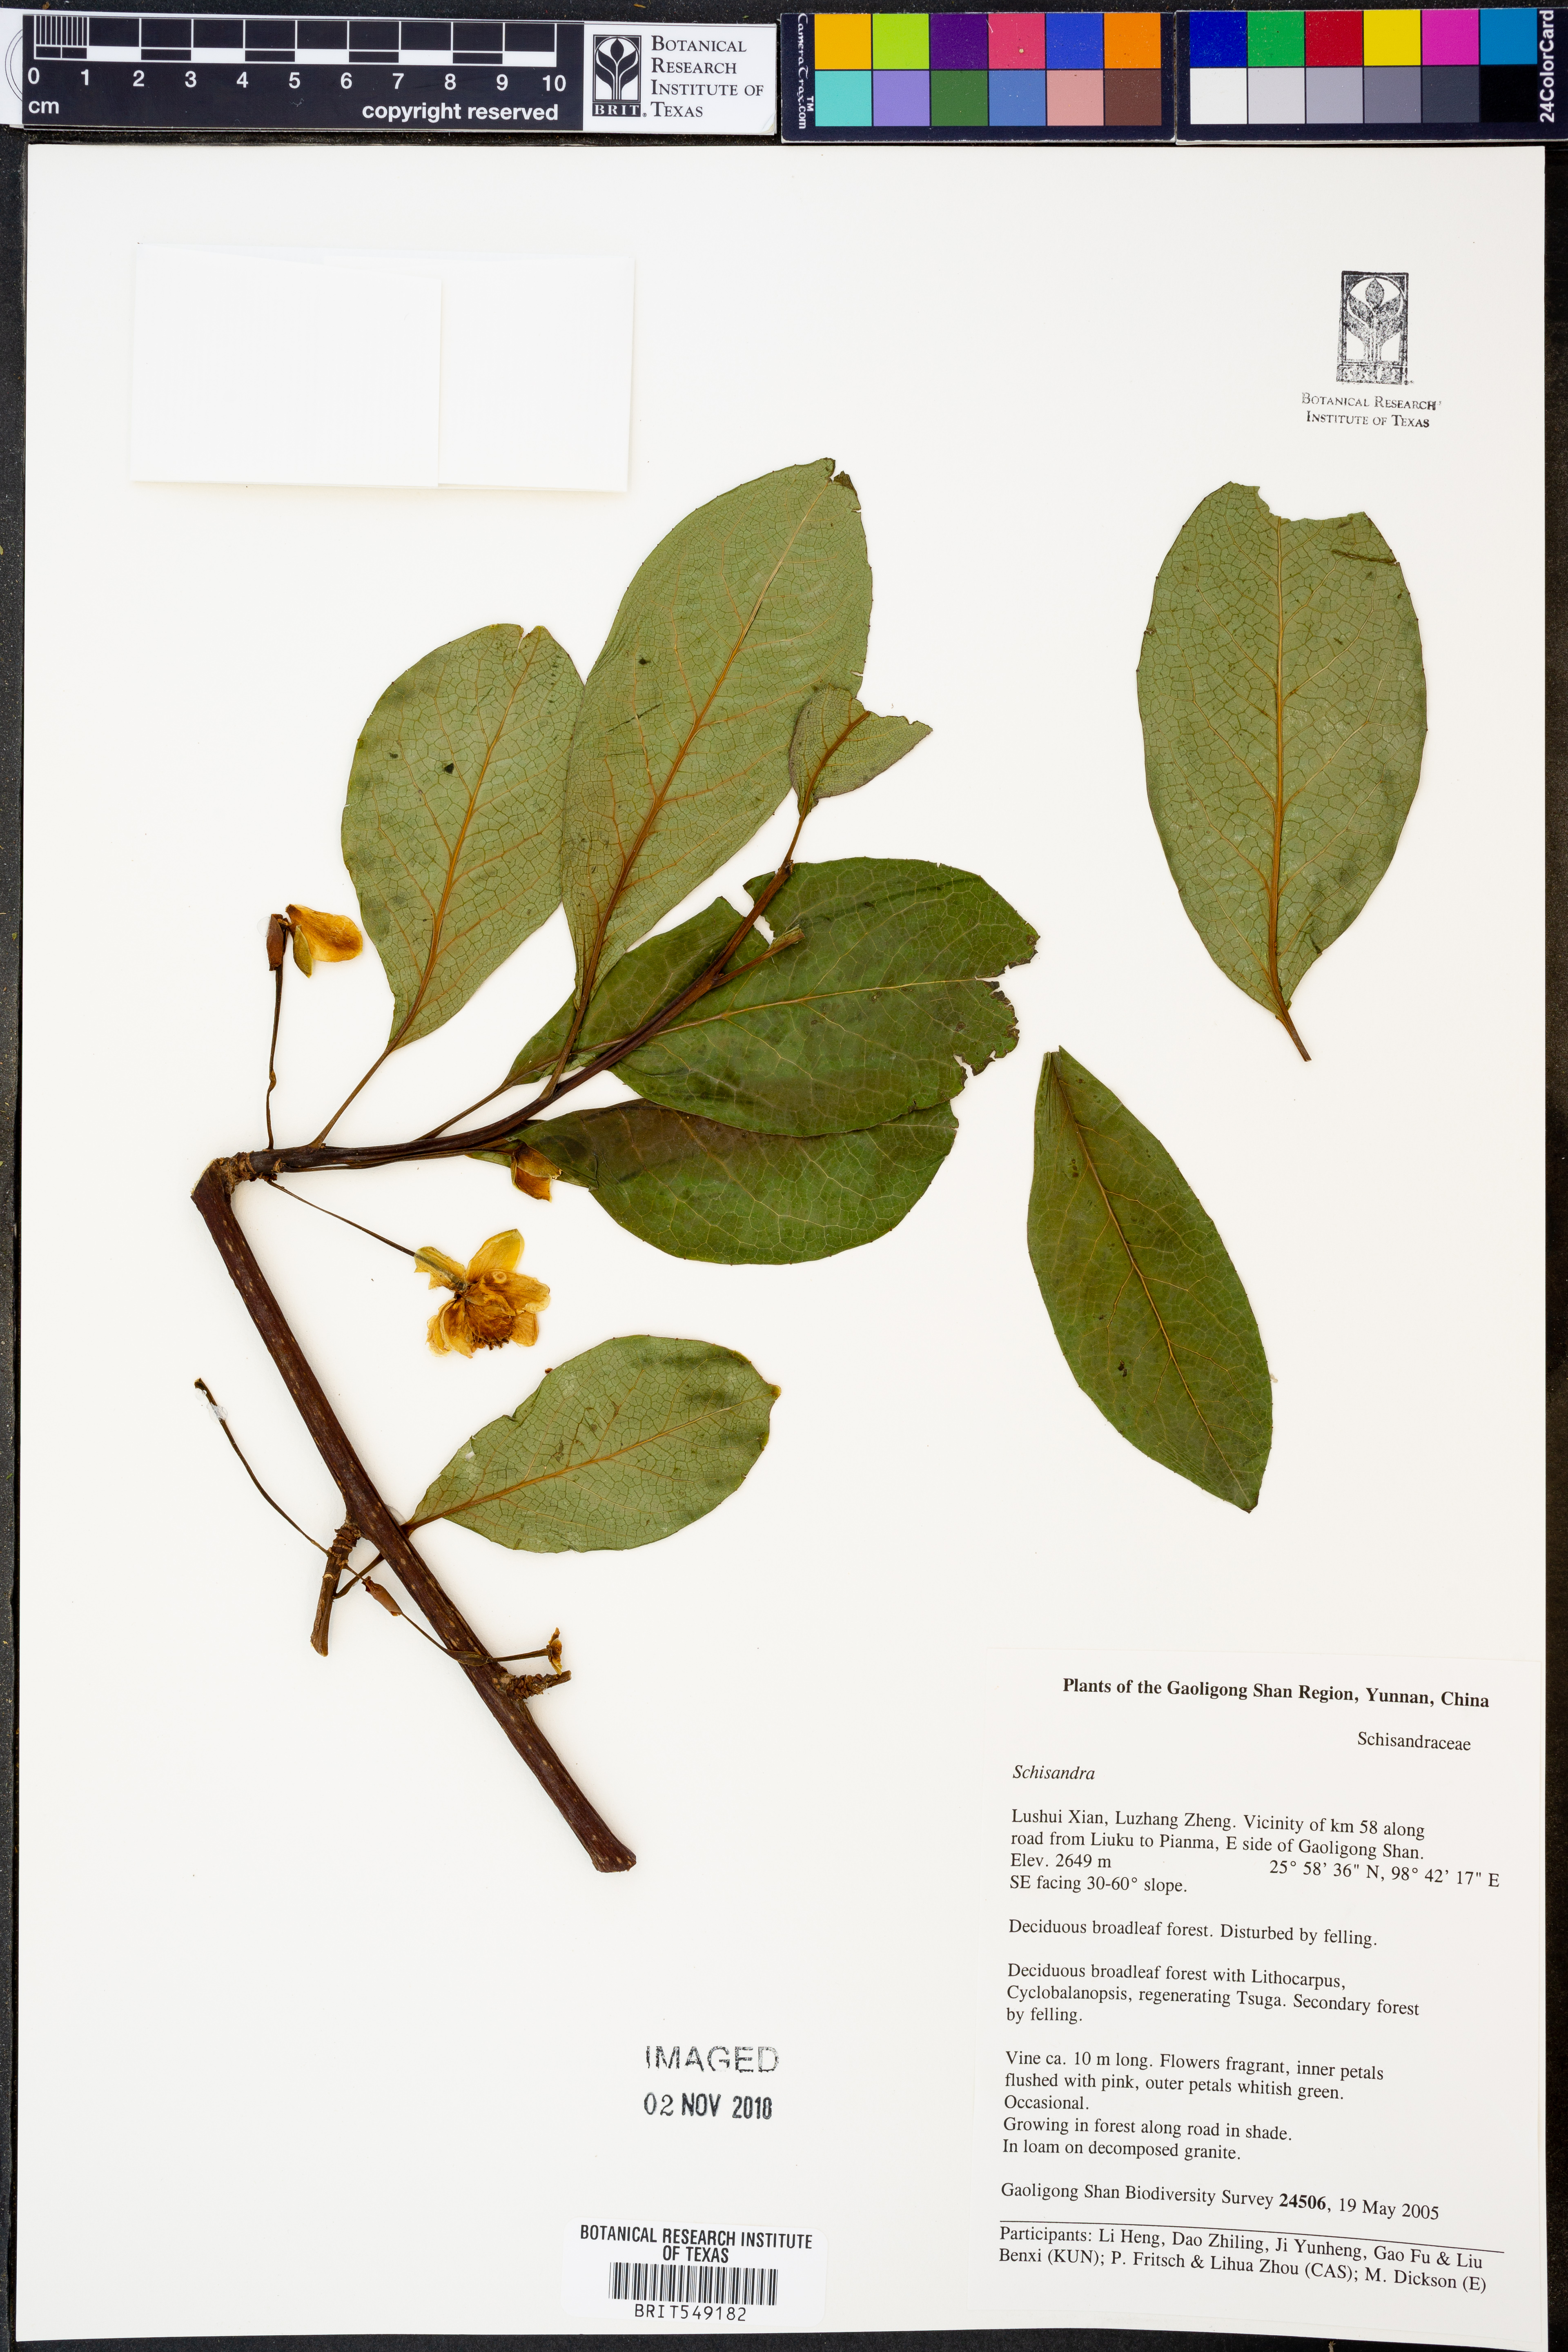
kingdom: Plantae
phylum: Tracheophyta
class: Magnoliopsida
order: Austrobaileyales
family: Schisandraceae
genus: Schisandra
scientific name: Schisandra
